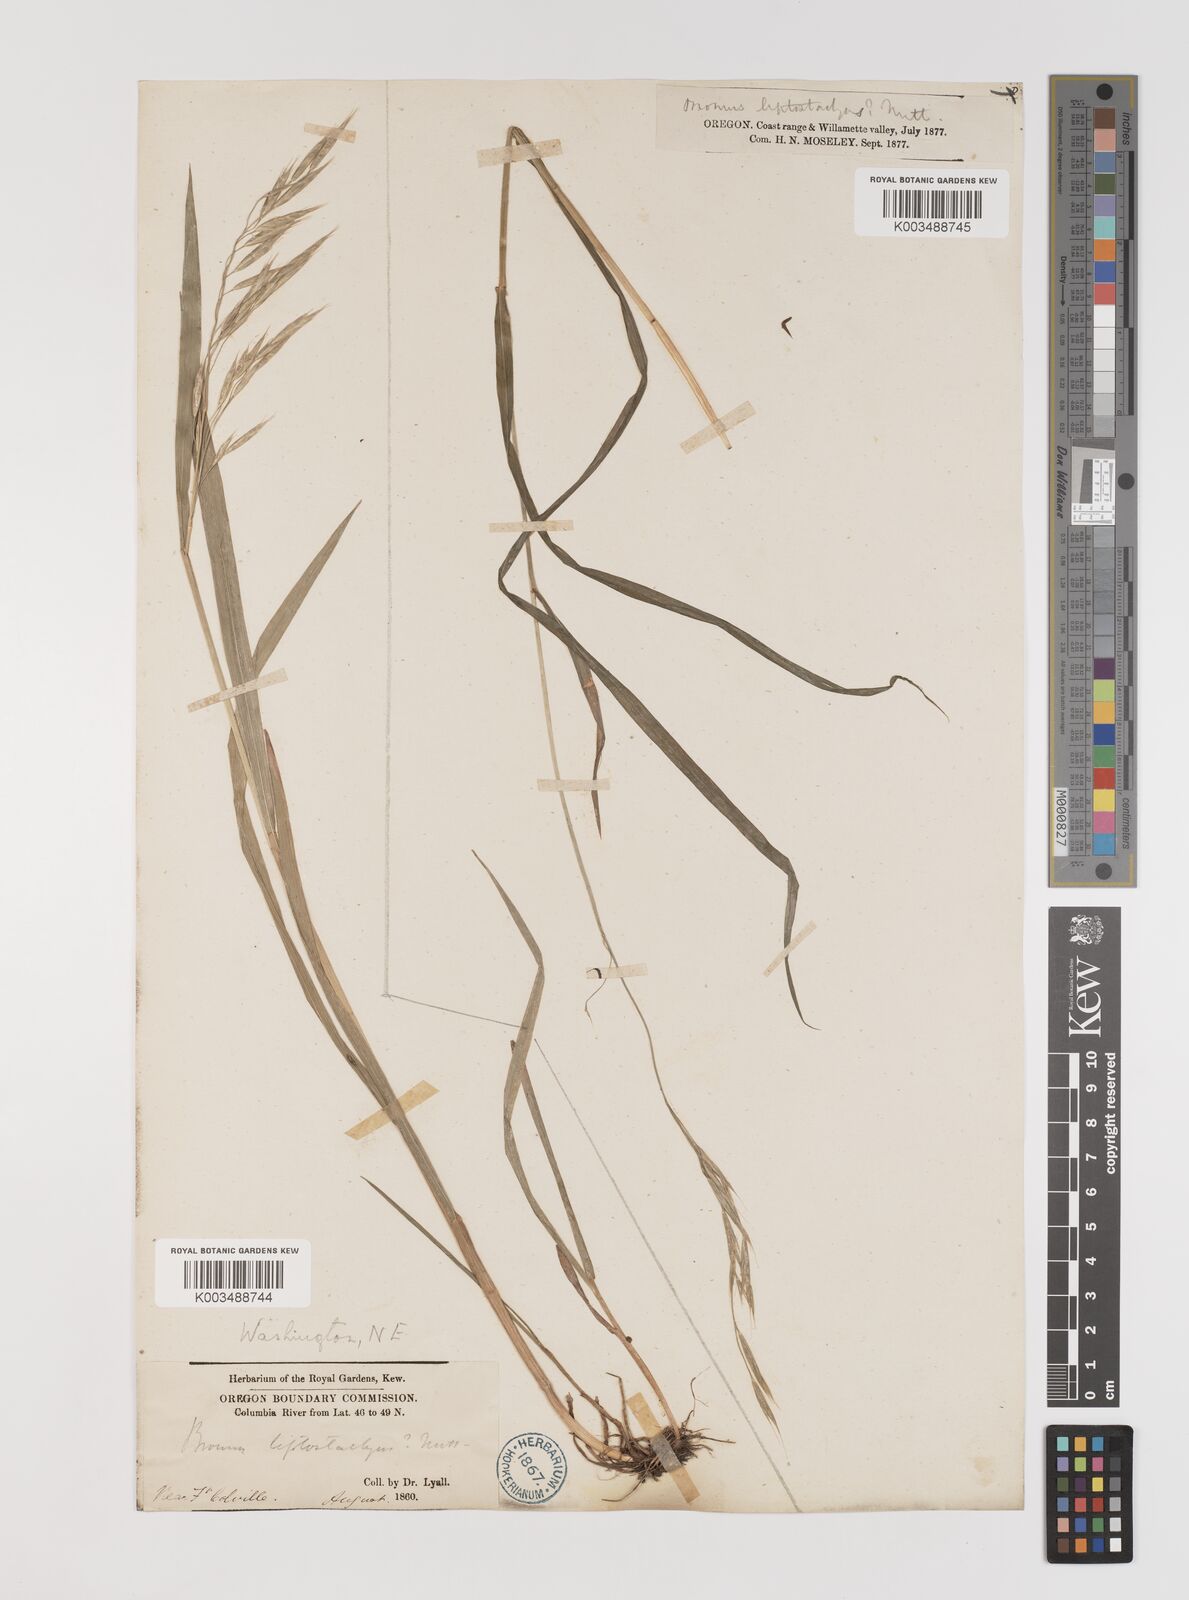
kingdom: Plantae
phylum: Tracheophyta
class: Liliopsida
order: Poales
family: Poaceae
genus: Bromus
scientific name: Bromus
